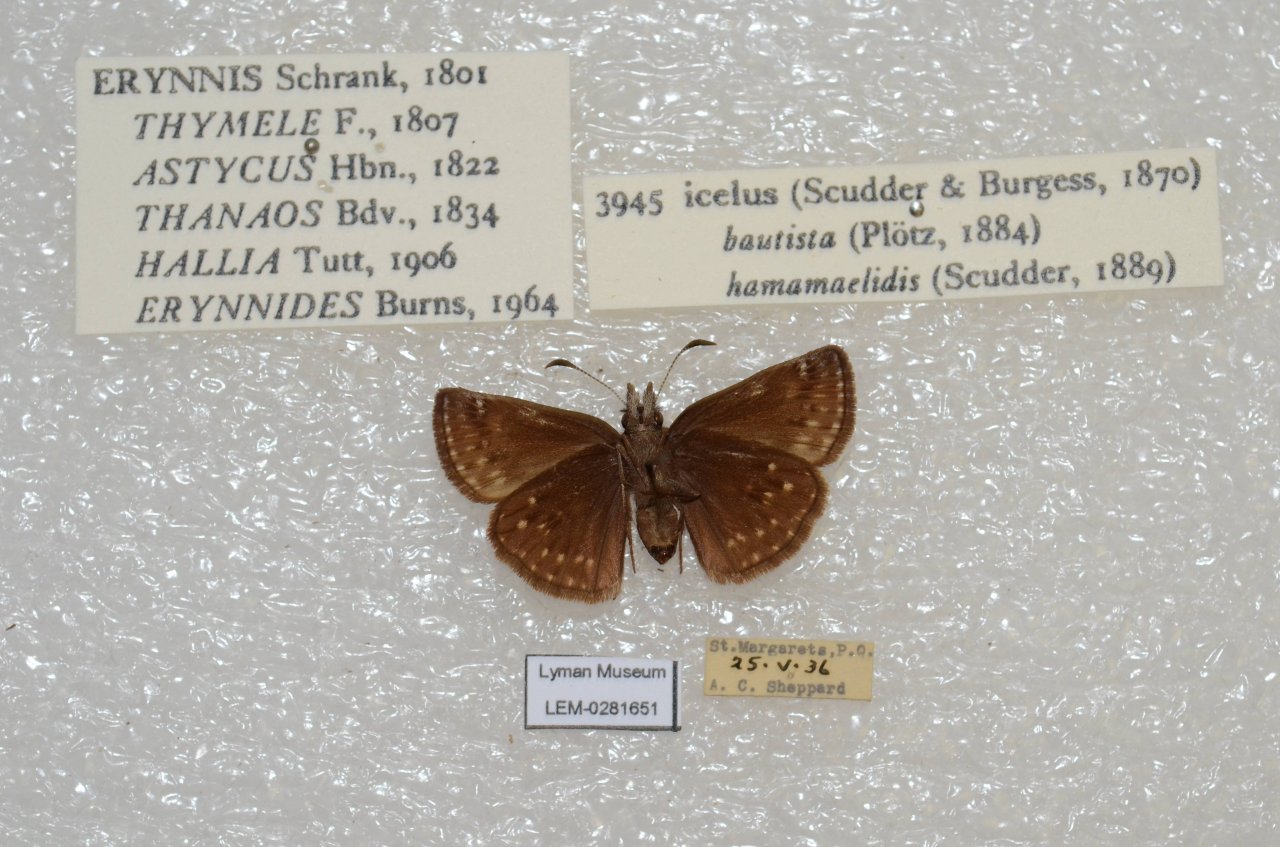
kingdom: Animalia
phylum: Arthropoda
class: Insecta
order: Lepidoptera
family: Hesperiidae
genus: Erynnis
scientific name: Erynnis icelus
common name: Dreamy Duskywing
